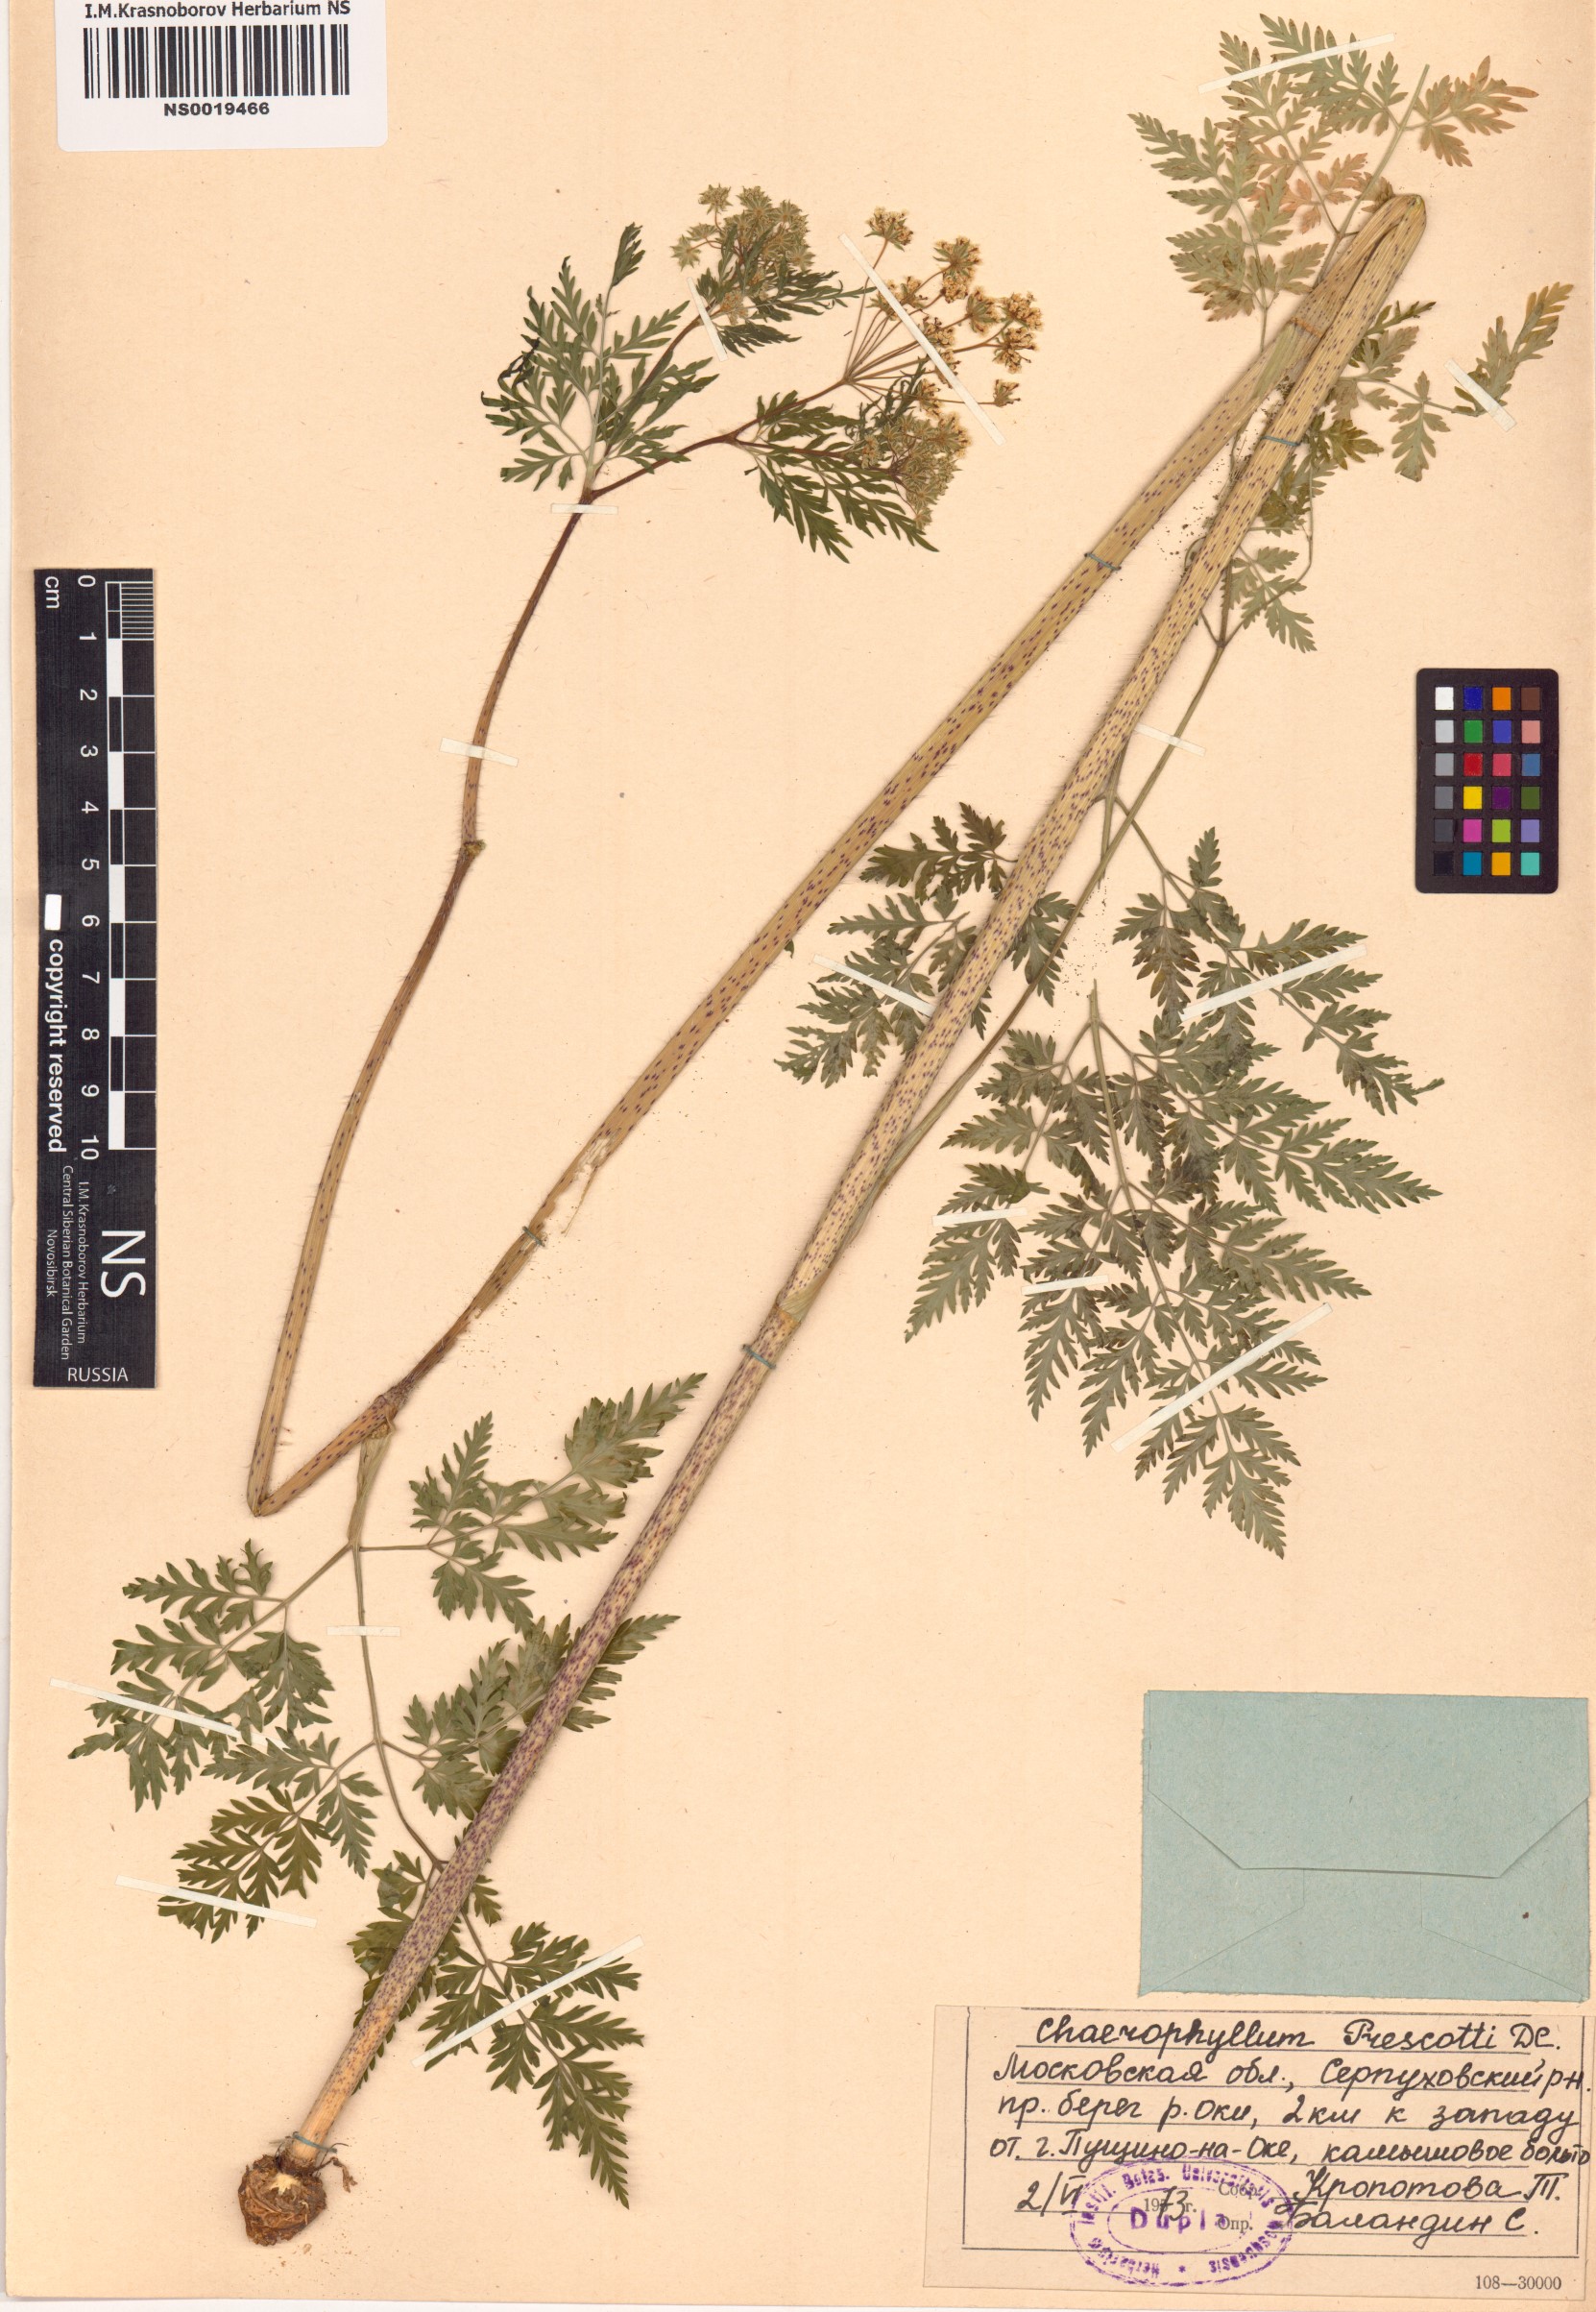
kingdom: Plantae
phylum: Tracheophyta
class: Magnoliopsida
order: Apiales
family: Apiaceae
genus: Chaerophyllum
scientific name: Chaerophyllum prescottii
